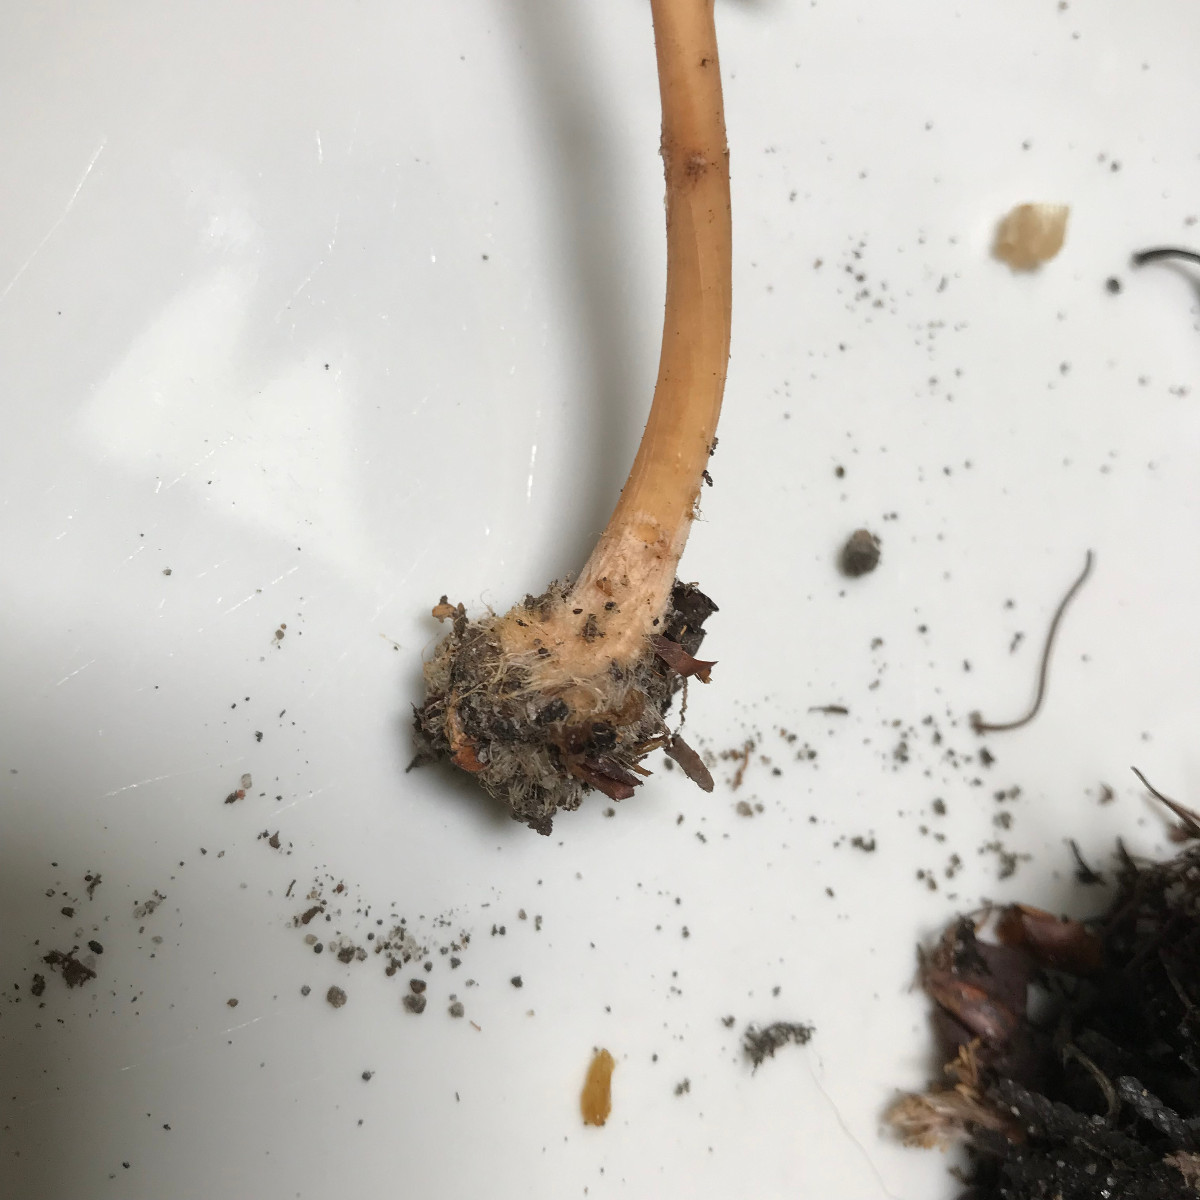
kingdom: Fungi
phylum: Basidiomycota
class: Agaricomycetes
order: Agaricales
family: Omphalotaceae
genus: Gymnopus
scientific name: Gymnopus aquosus
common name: bleg fladhat
